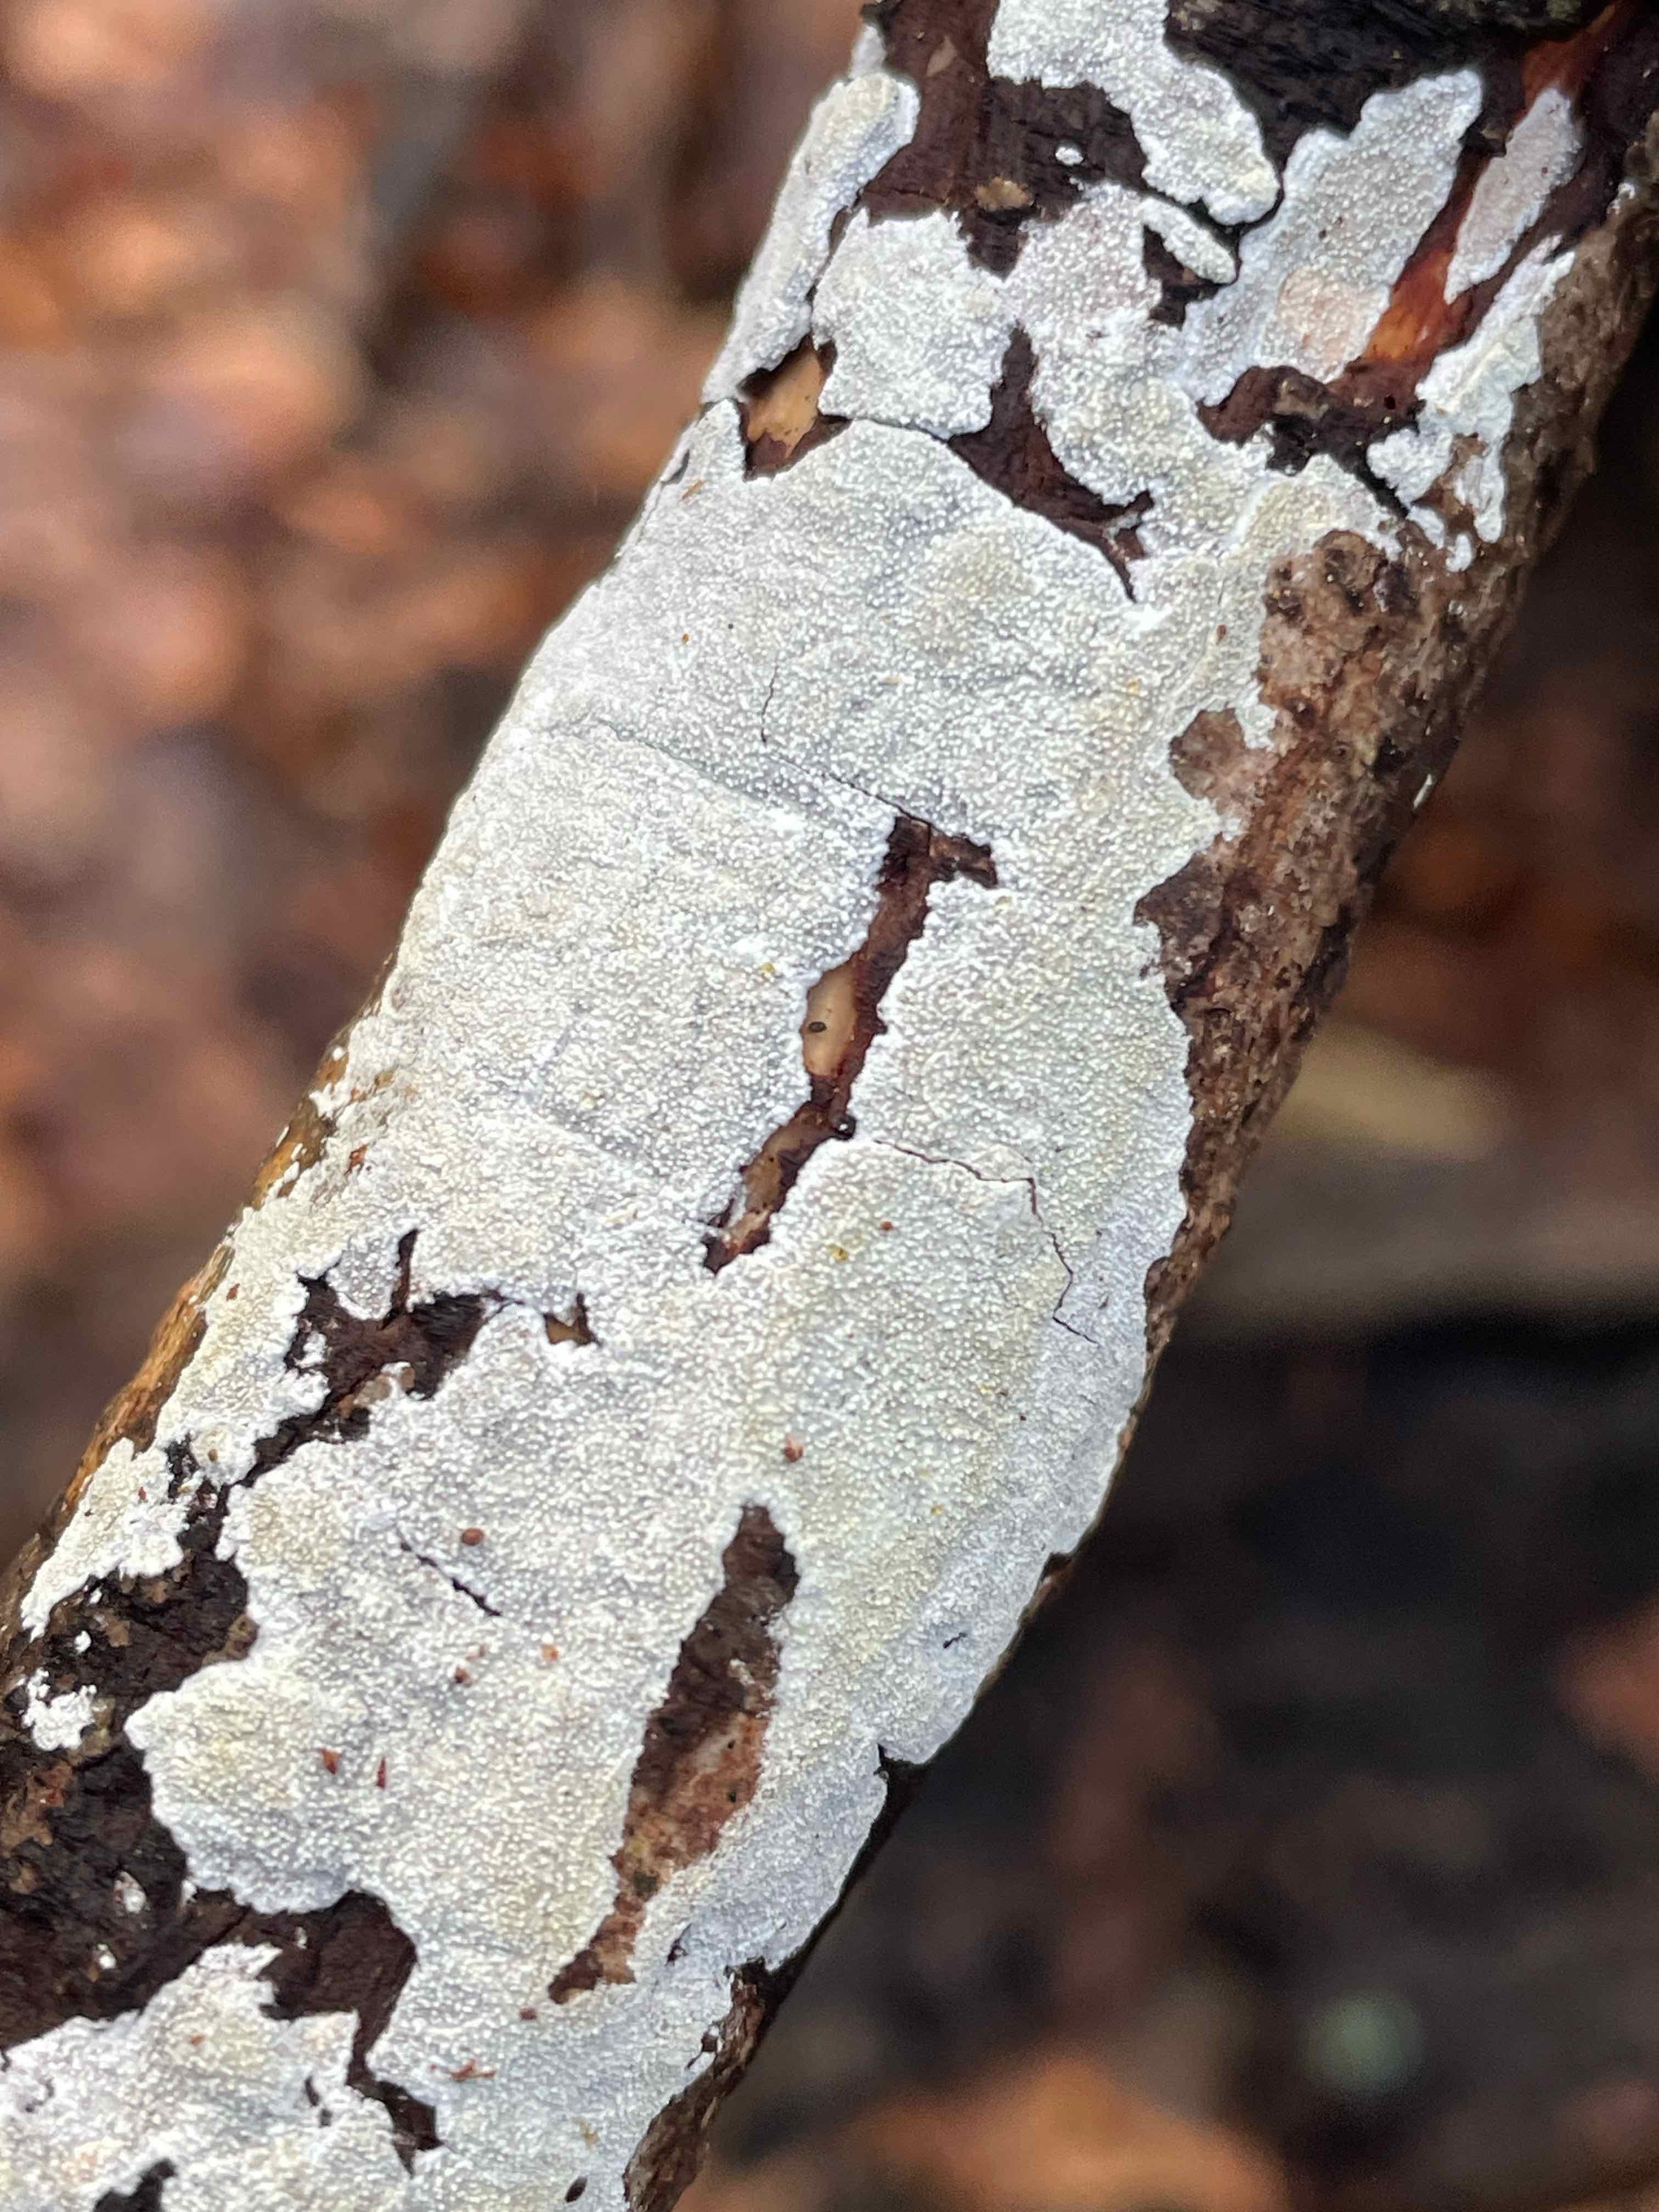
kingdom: Fungi
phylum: Basidiomycota
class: Agaricomycetes
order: Corticiales
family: Corticiaceae
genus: Lyomyces
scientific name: Lyomyces crustosus
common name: vortet hyldehinde
